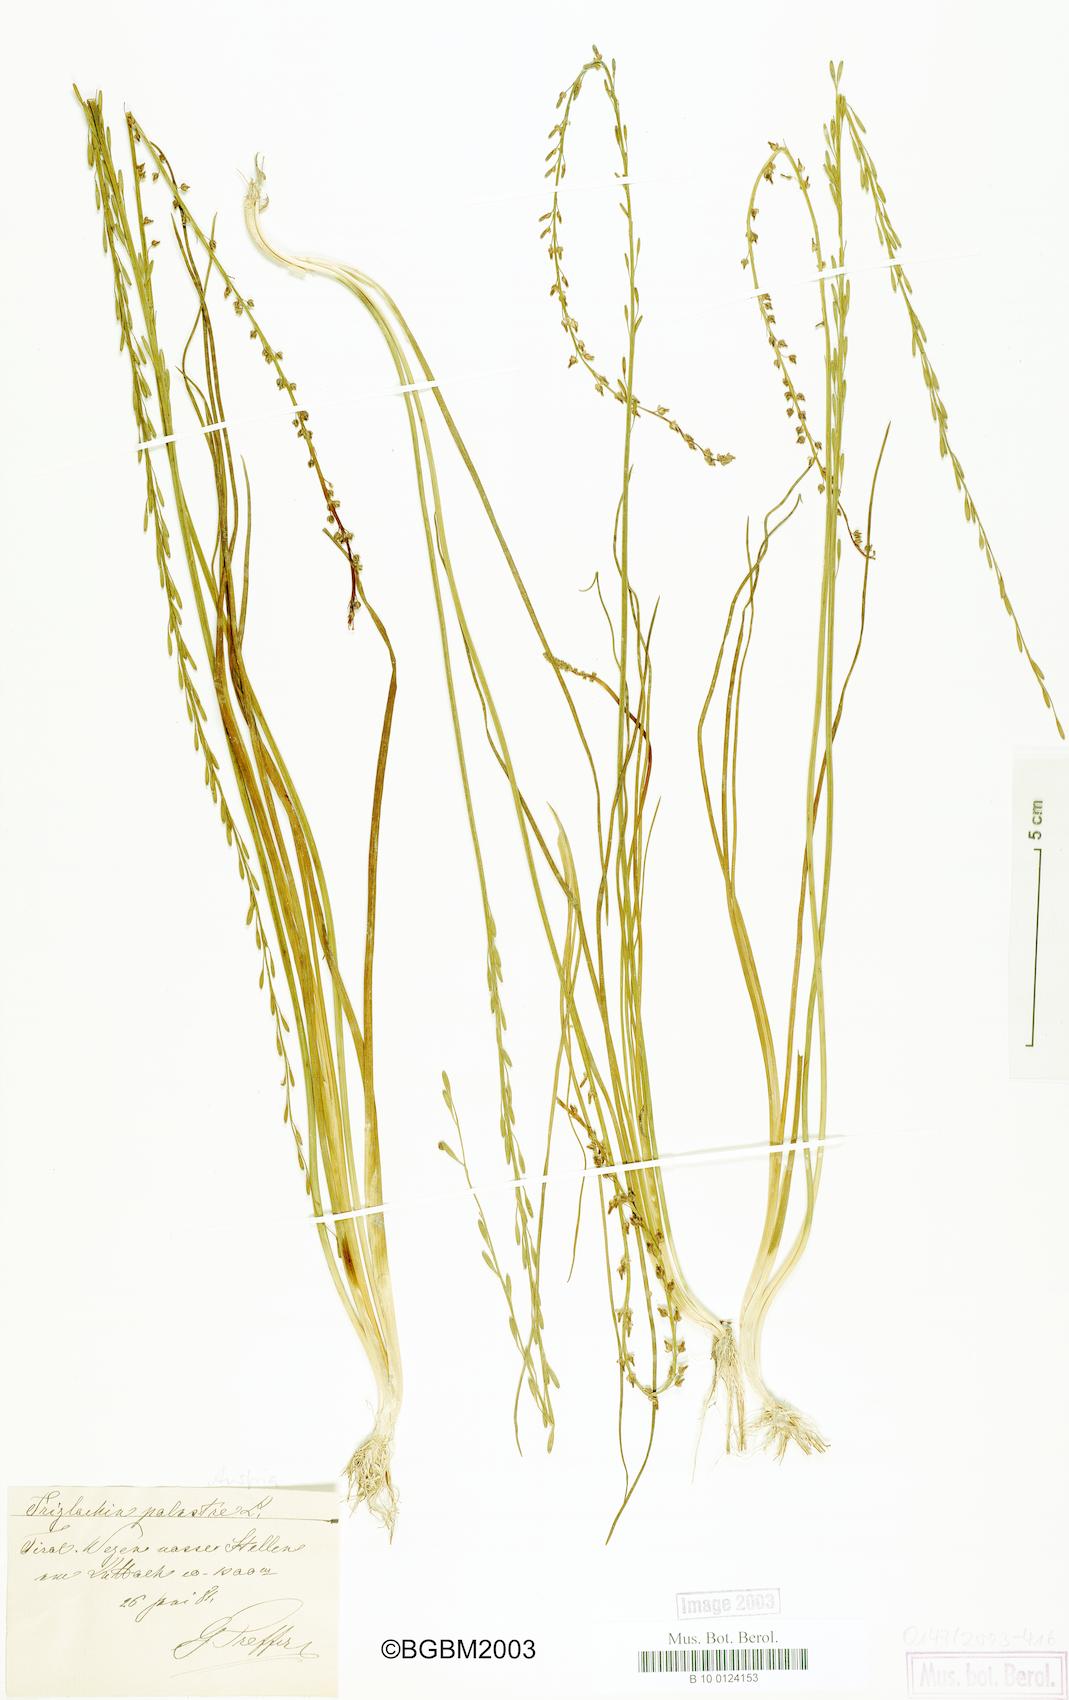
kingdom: Plantae
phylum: Tracheophyta
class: Liliopsida
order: Alismatales
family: Juncaginaceae
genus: Triglochin
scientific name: Triglochin palustris
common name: Marsh arrowgrass
